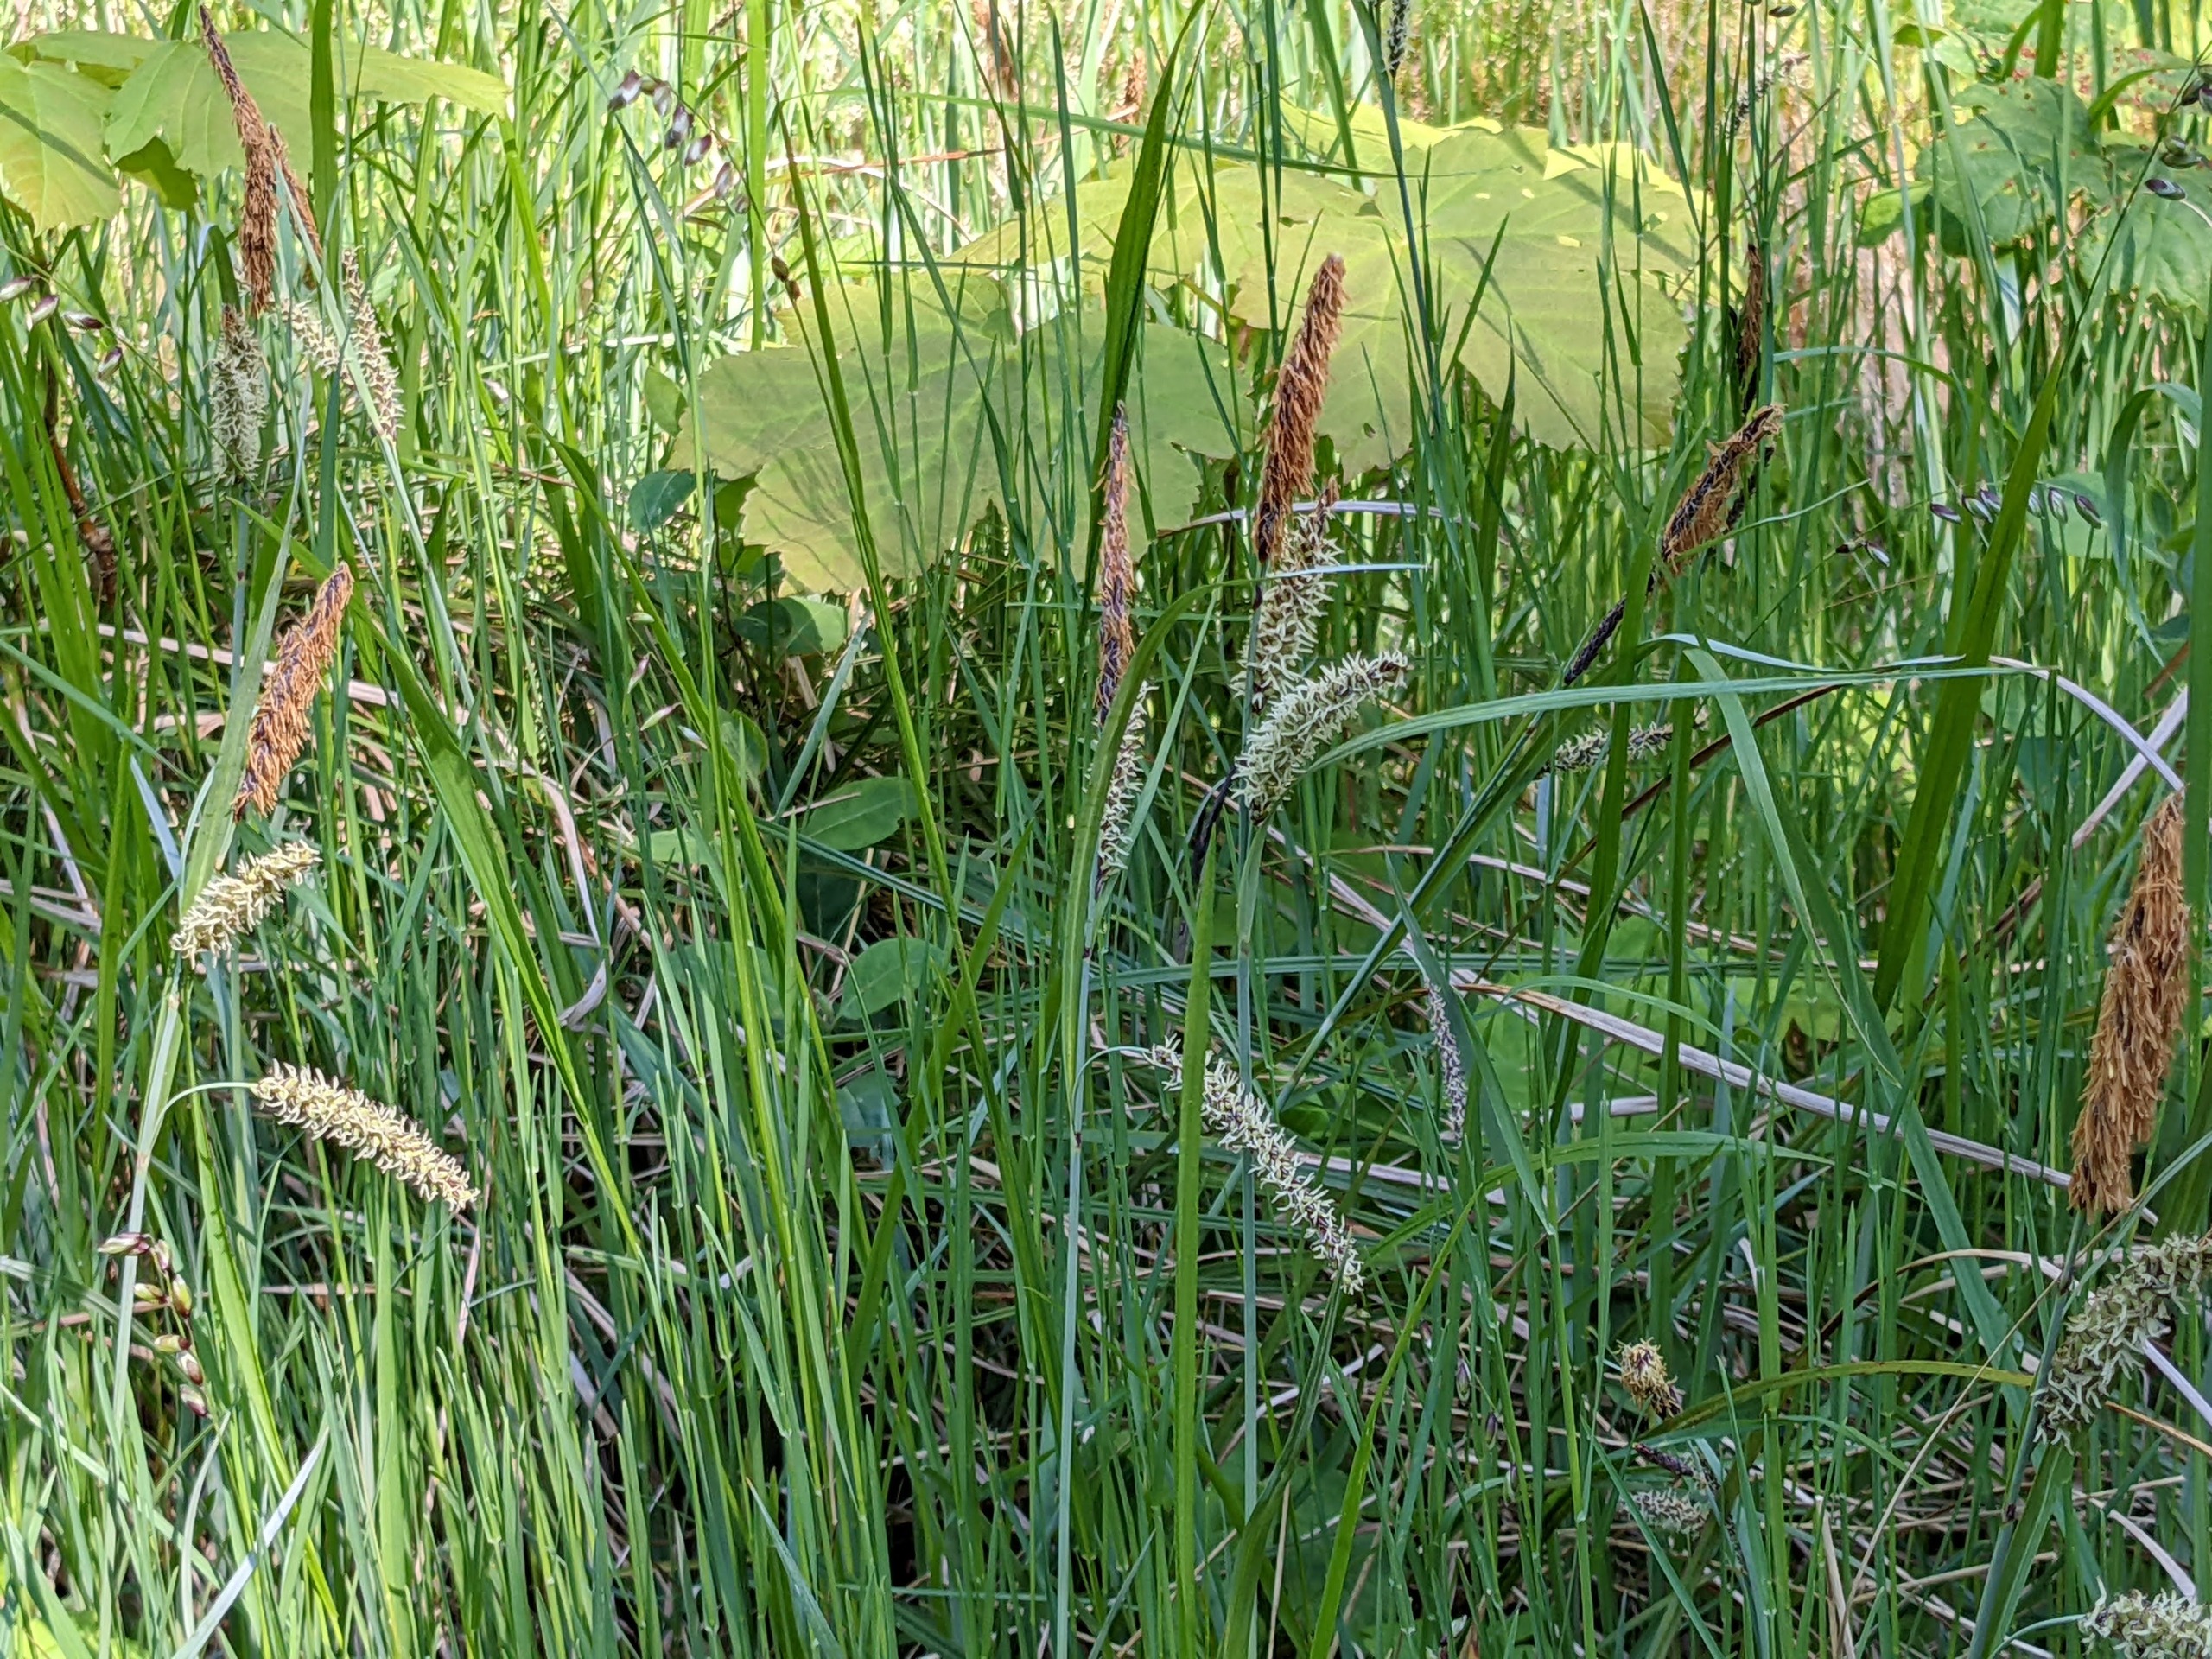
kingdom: Plantae
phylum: Tracheophyta
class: Liliopsida
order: Poales
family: Cyperaceae
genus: Carex
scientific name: Carex flacca
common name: Blågrøn star
